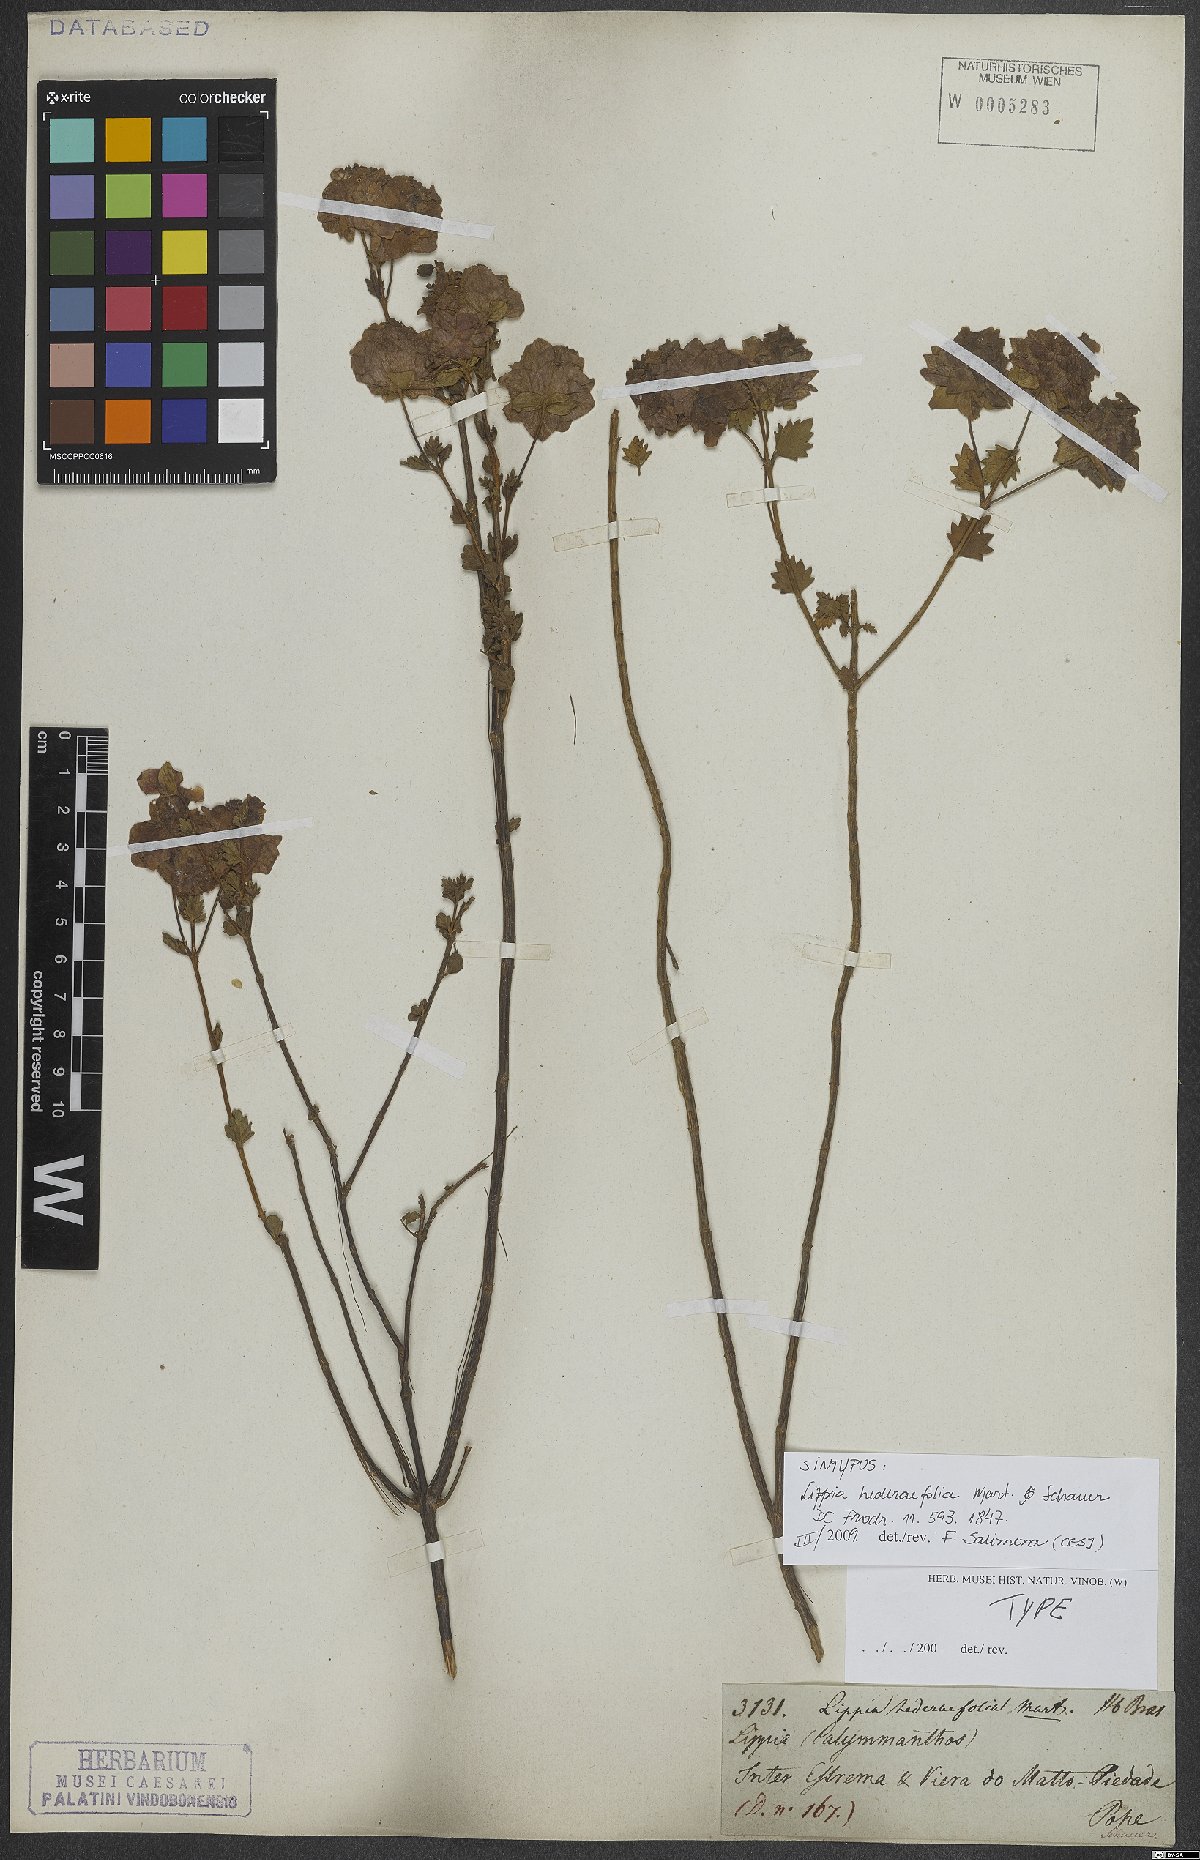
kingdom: Plantae
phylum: Tracheophyta
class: Magnoliopsida
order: Lamiales
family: Verbenaceae
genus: Lippia
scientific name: Lippia hederifolia
